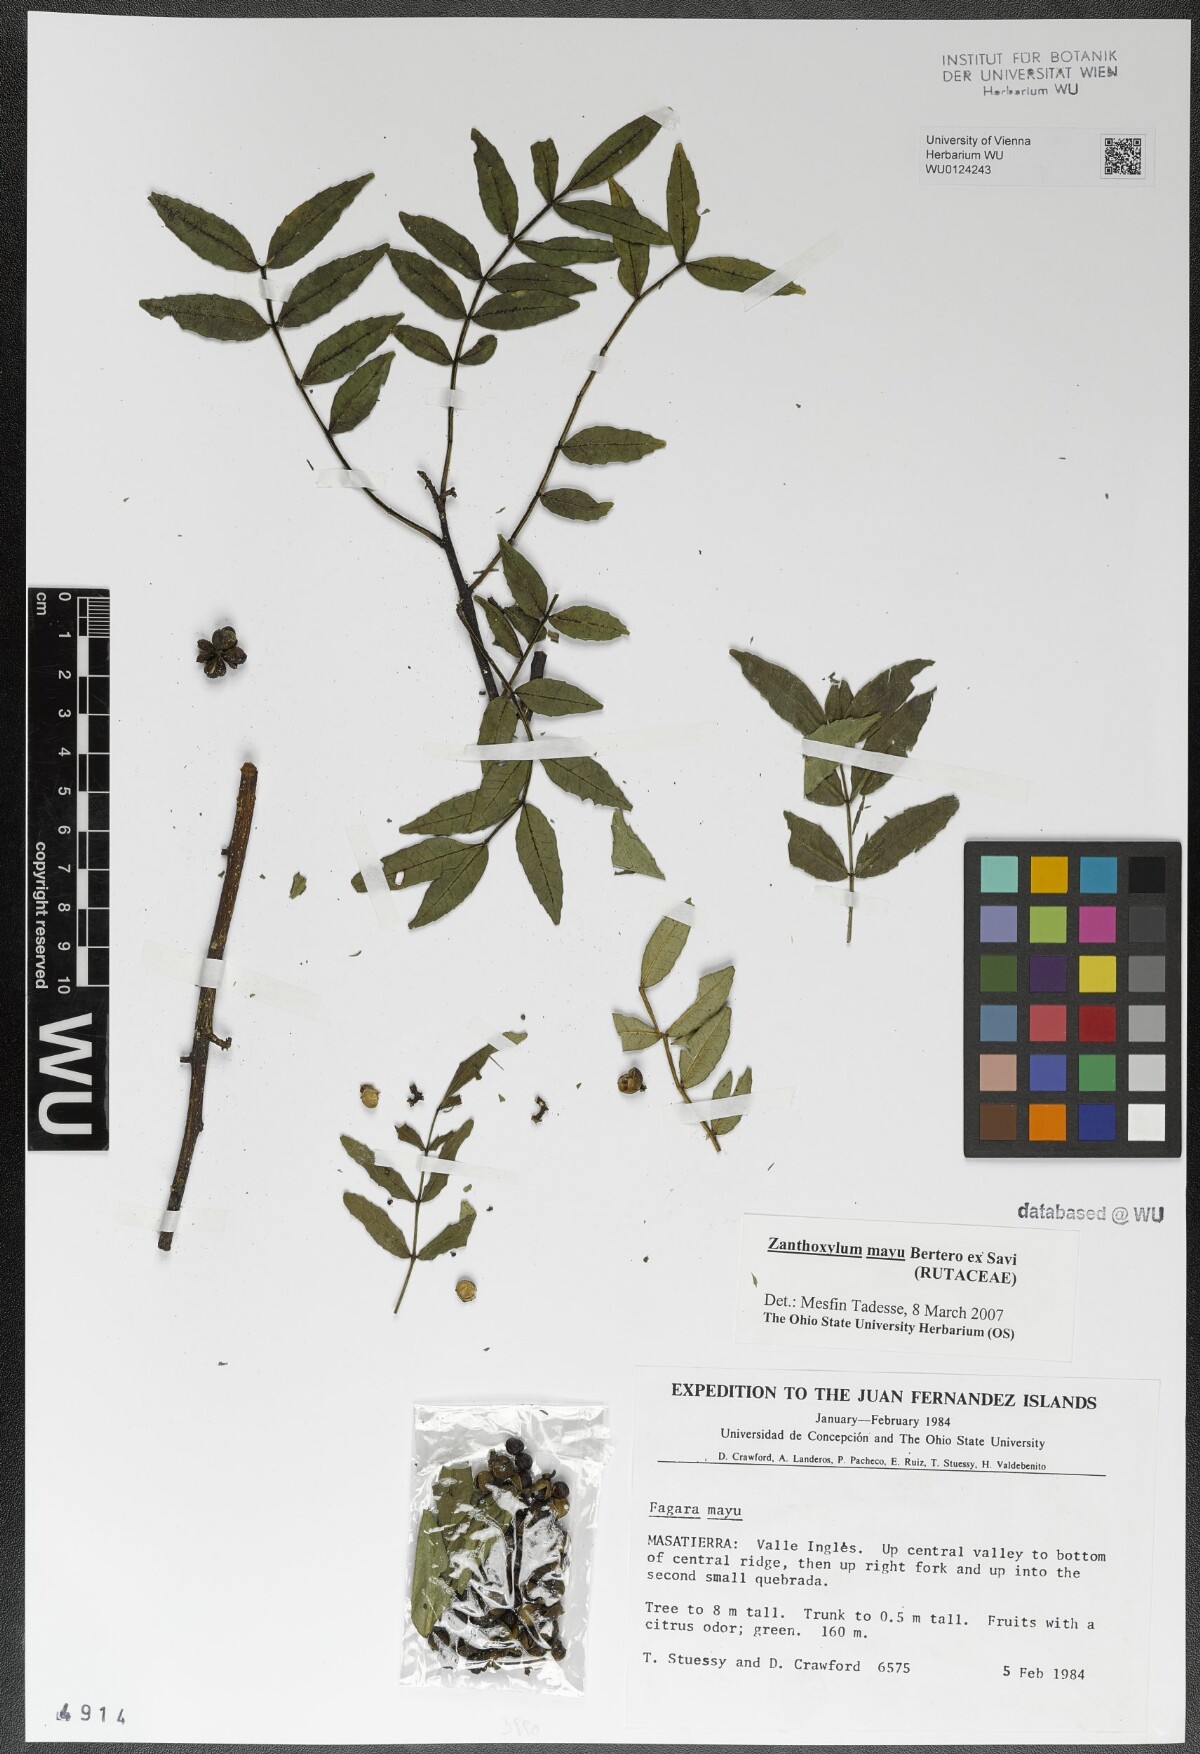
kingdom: Plantae
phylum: Tracheophyta
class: Magnoliopsida
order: Sapindales
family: Rutaceae
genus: Zanthoxylum
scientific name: Zanthoxylum mayu
